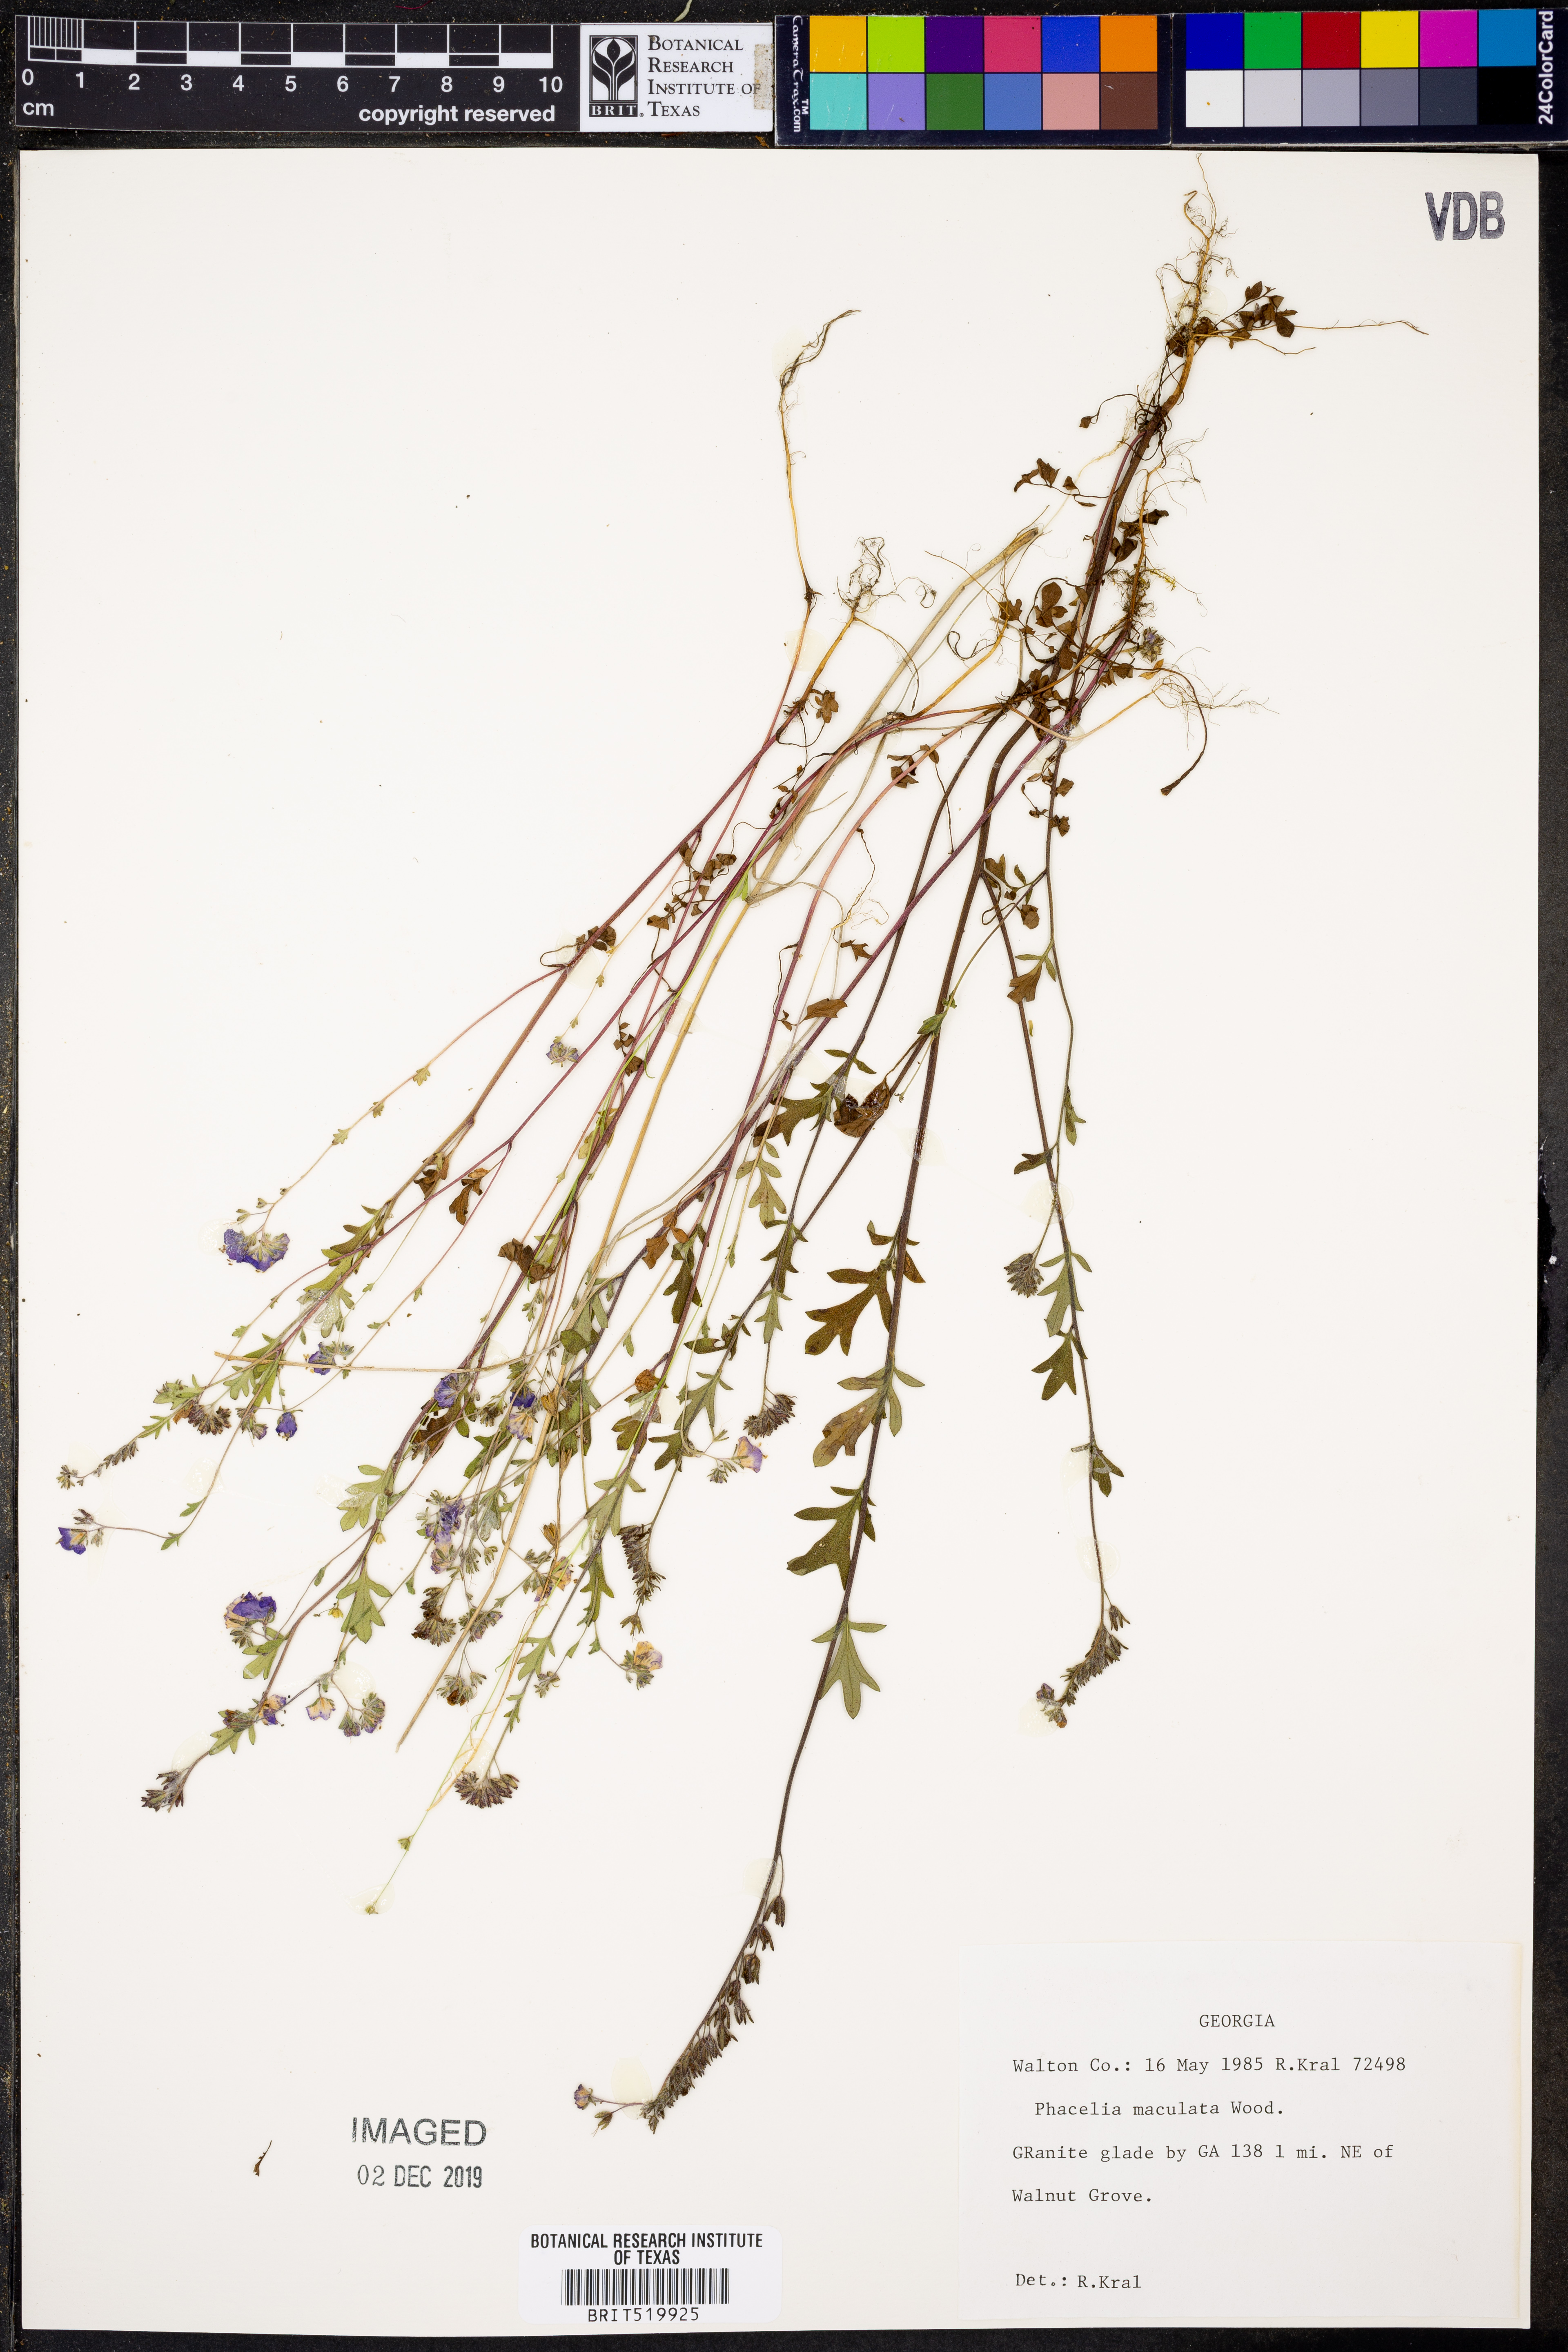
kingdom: Plantae
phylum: Tracheophyta
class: Magnoliopsida
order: Boraginales
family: Hydrophyllaceae
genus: Phacelia
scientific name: Phacelia maculata
